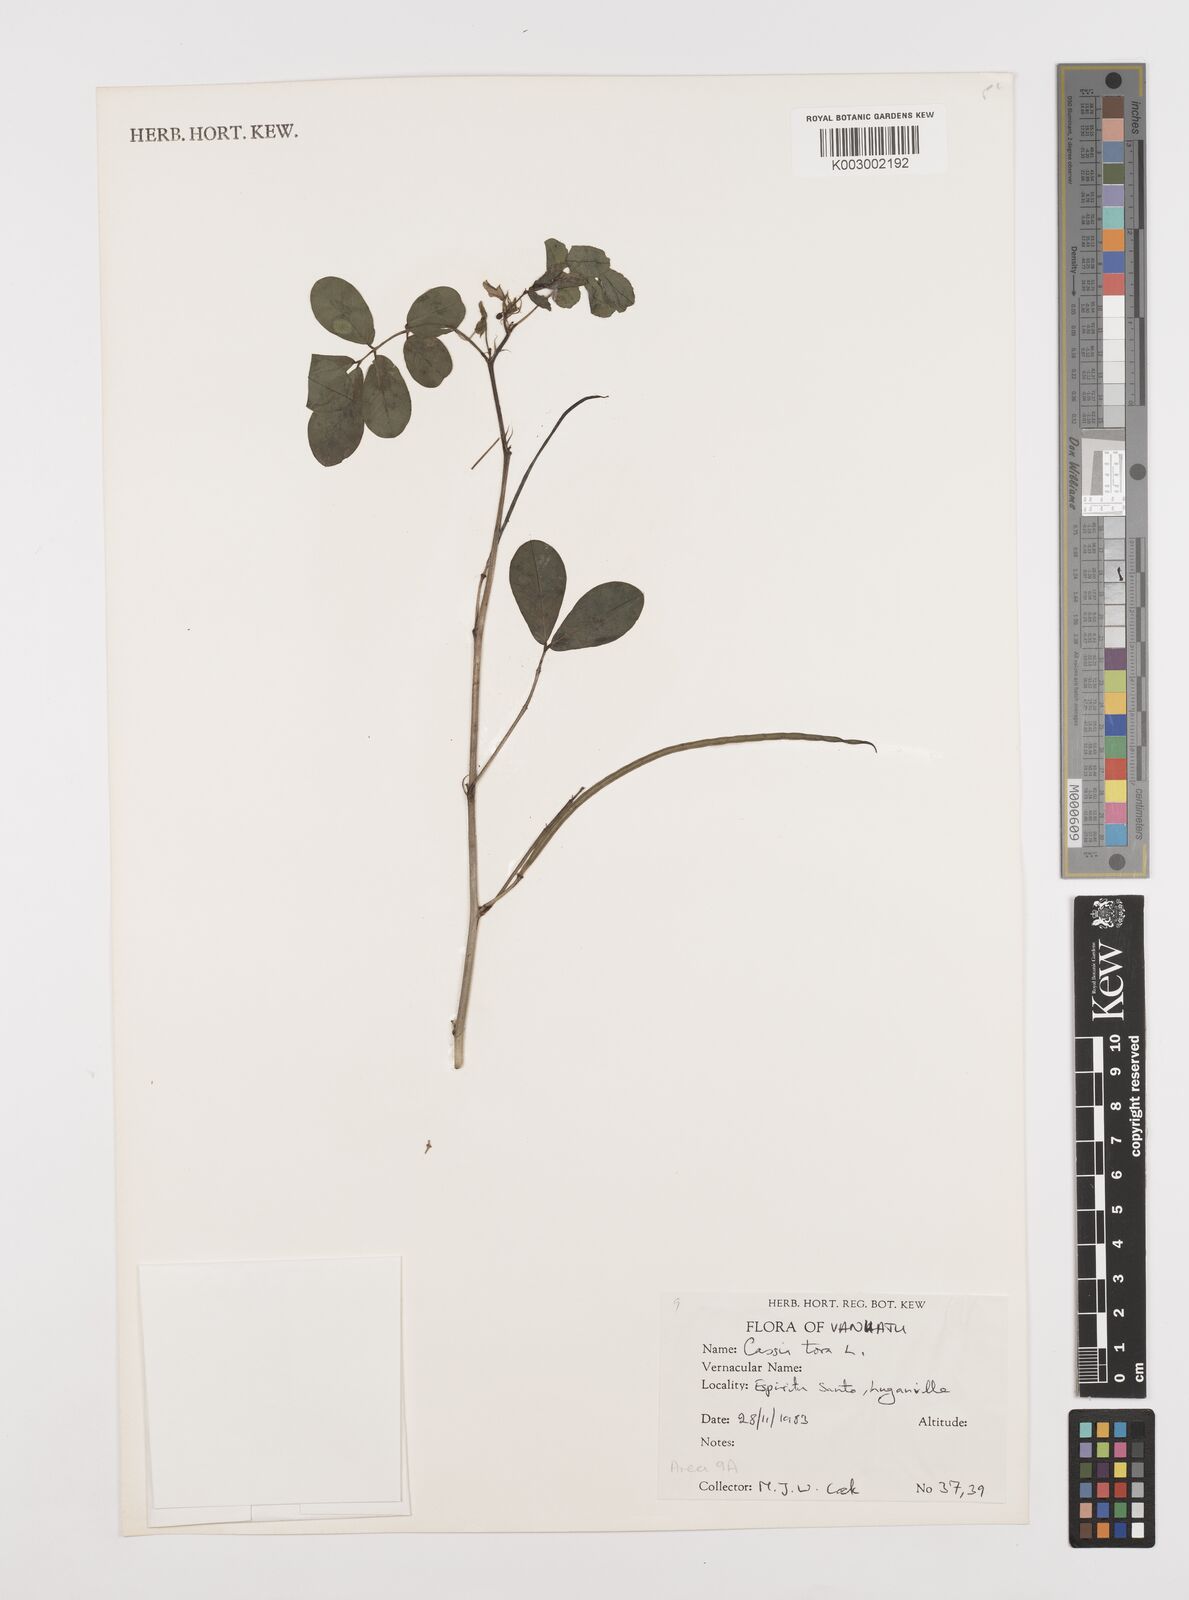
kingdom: Plantae
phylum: Tracheophyta
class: Magnoliopsida
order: Fabales
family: Fabaceae
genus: Senna
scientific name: Senna tora
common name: Sickle senna
